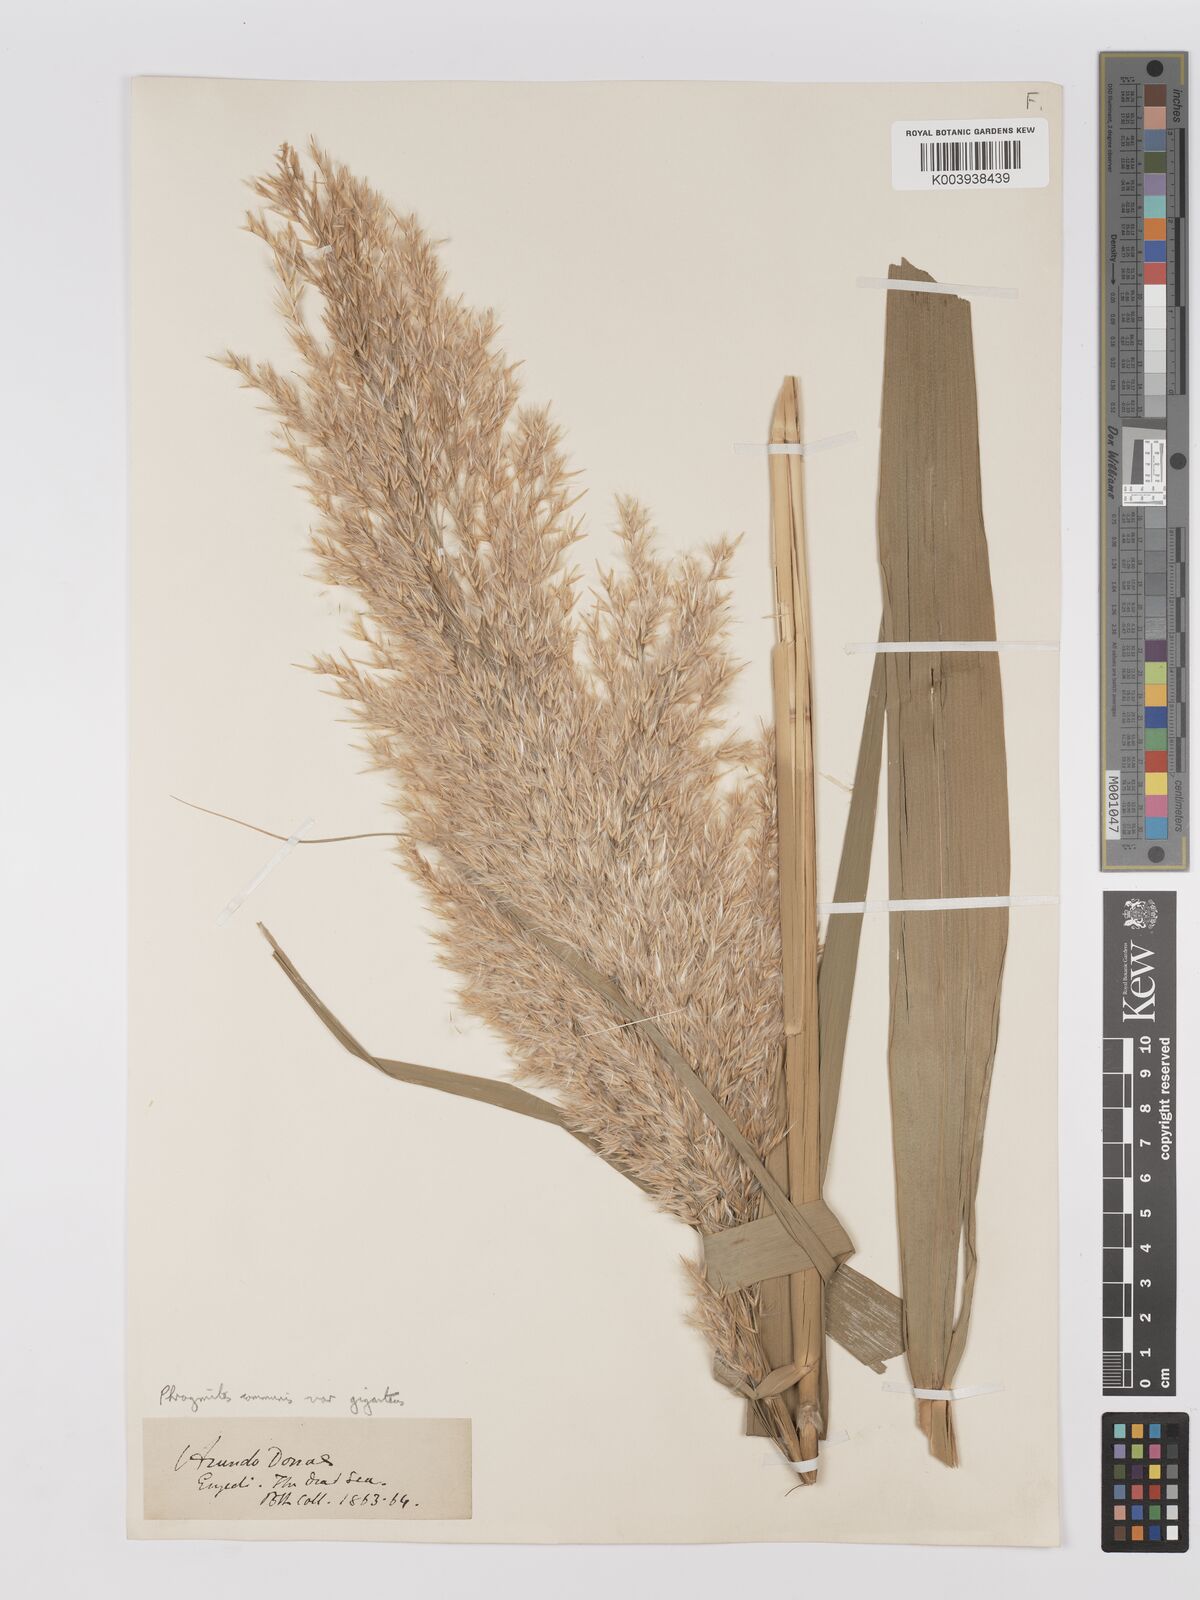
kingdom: Plantae
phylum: Tracheophyta
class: Liliopsida
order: Poales
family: Poaceae
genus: Phragmites
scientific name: Phragmites australis
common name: Common reed
